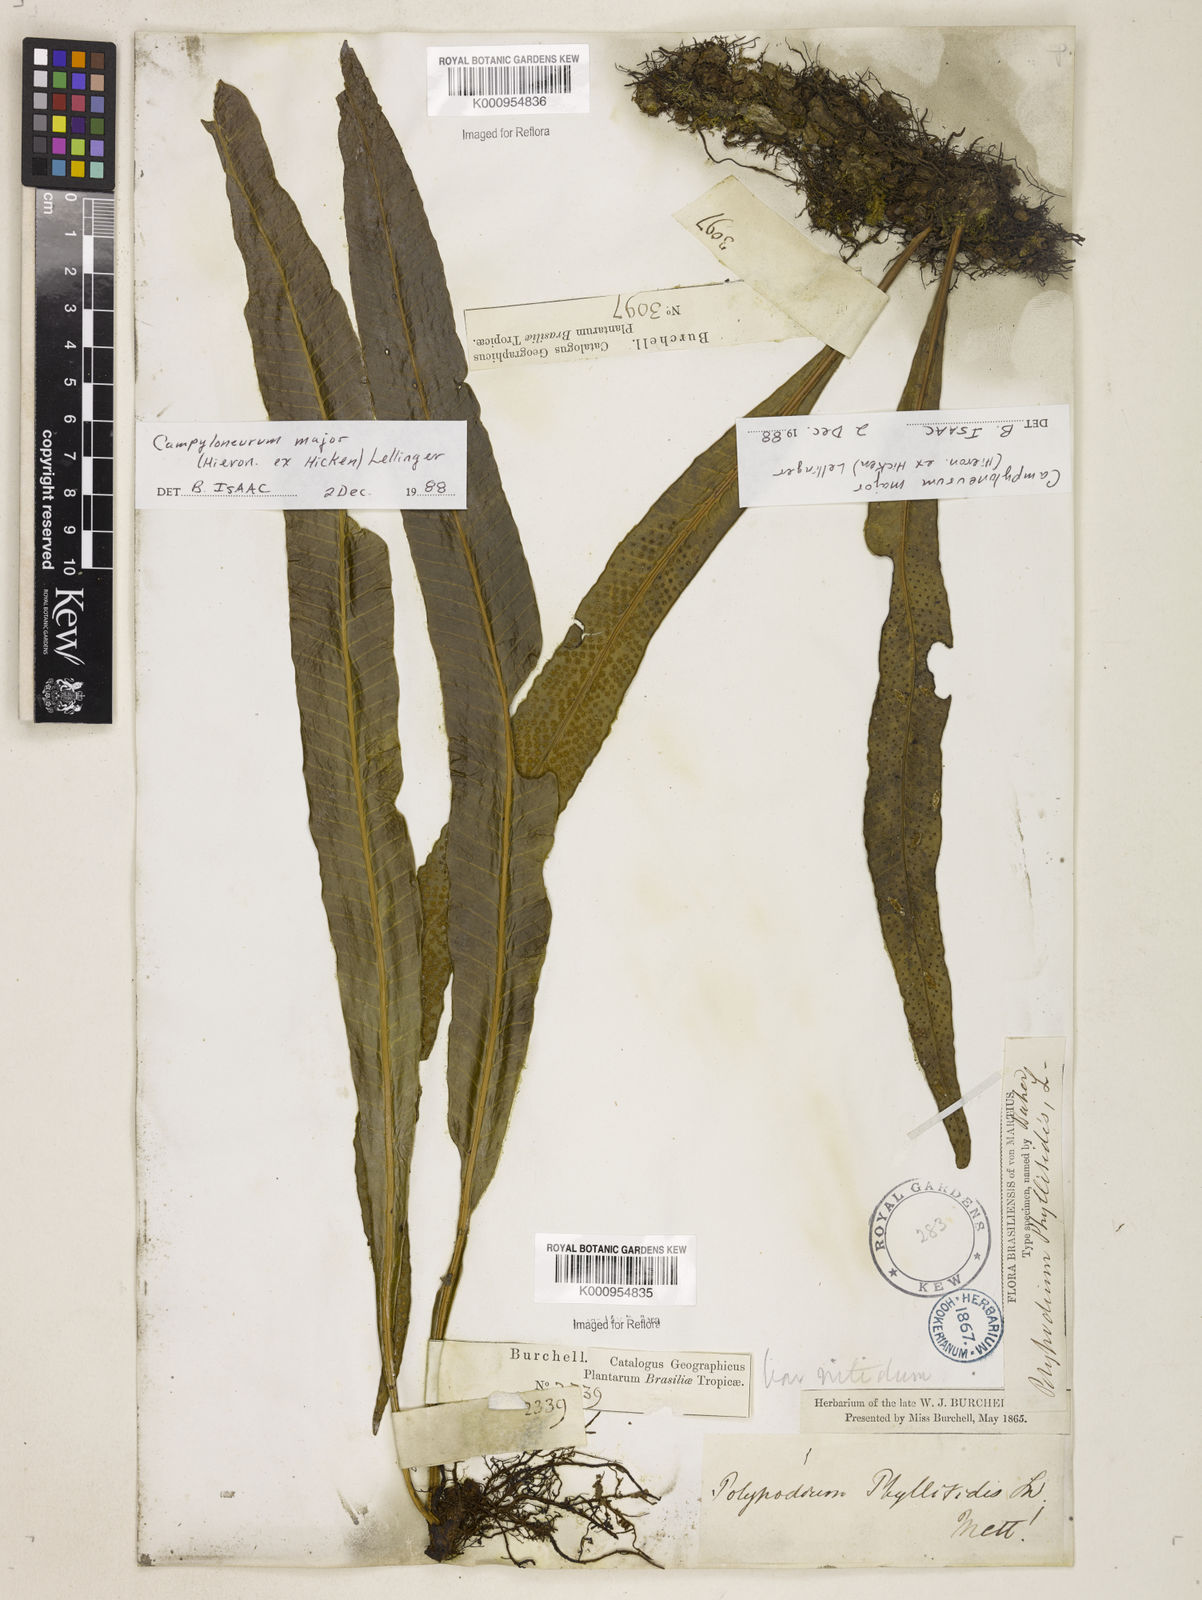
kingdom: Plantae
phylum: Tracheophyta
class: Polypodiopsida
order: Polypodiales
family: Polypodiaceae
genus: Campyloneurum
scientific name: Campyloneurum majus
